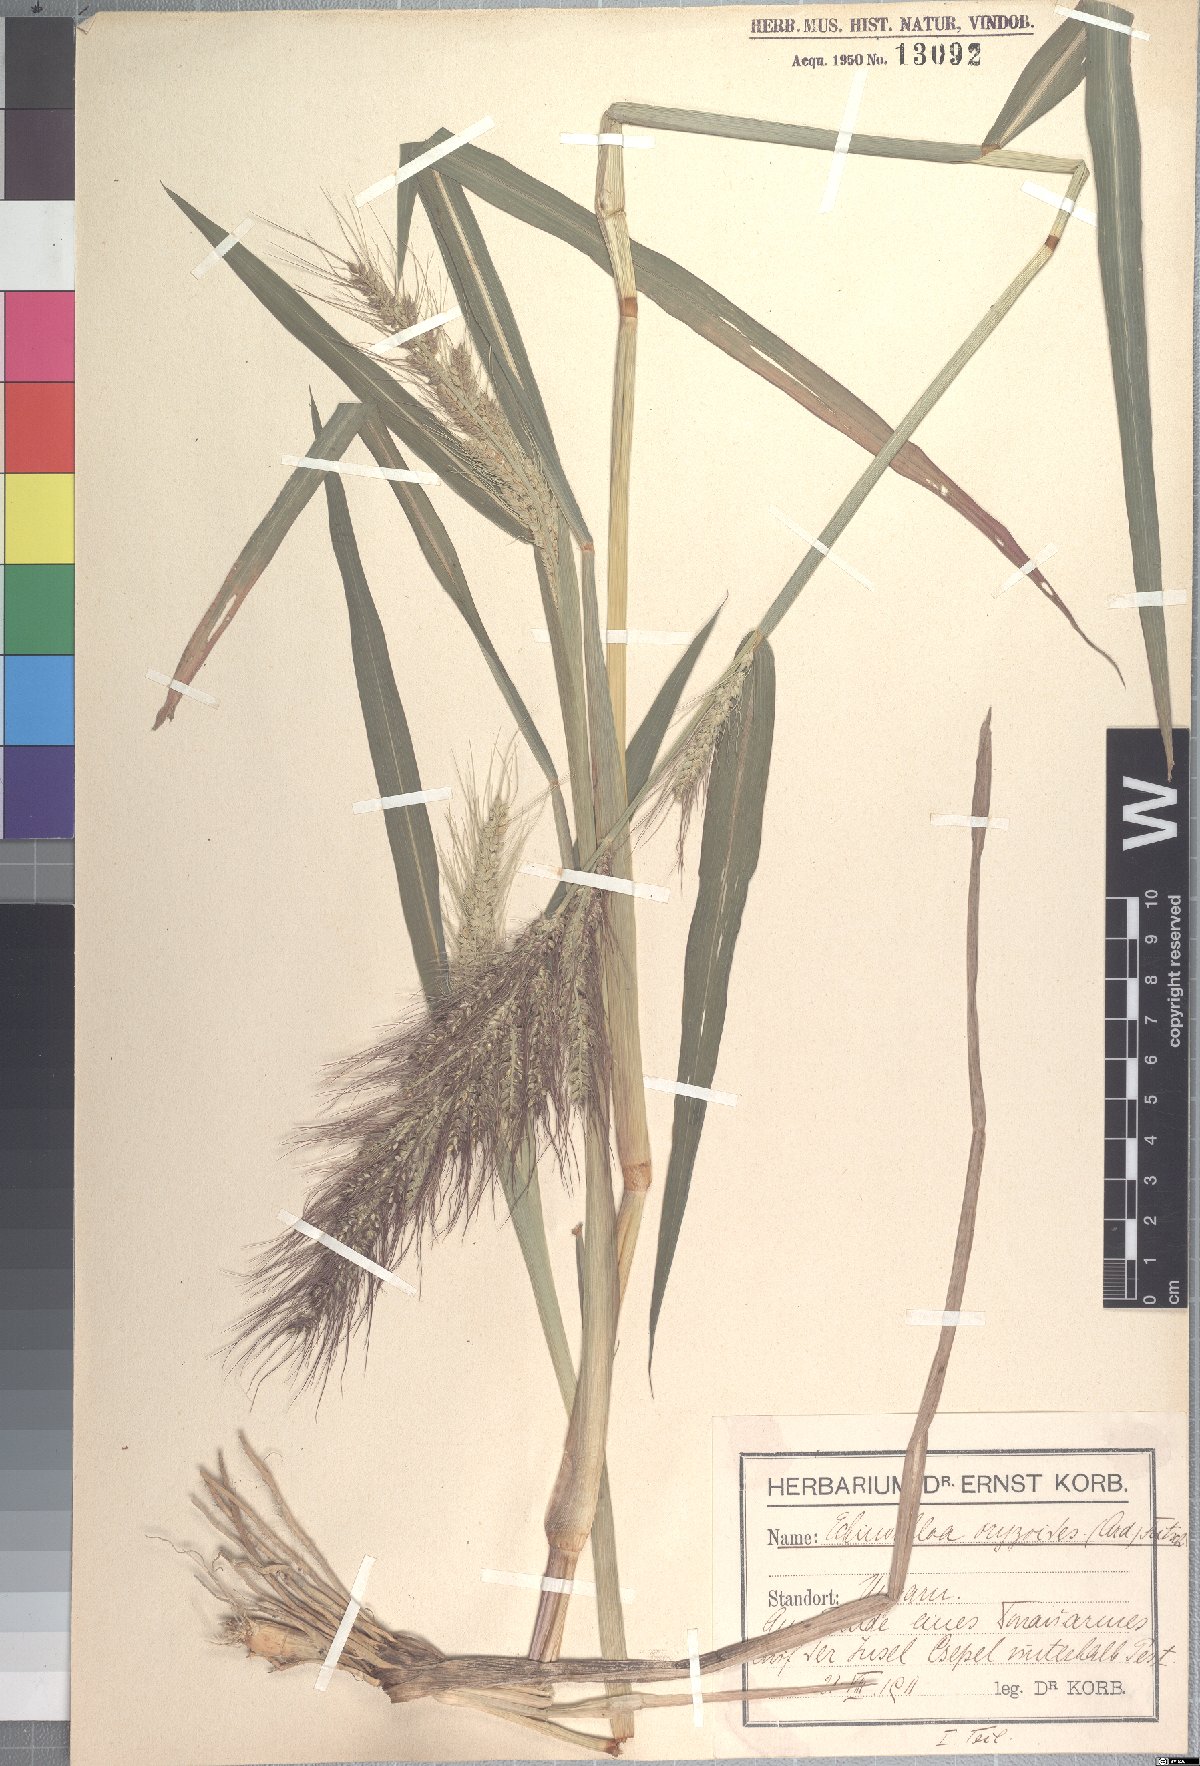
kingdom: Plantae
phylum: Tracheophyta
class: Liliopsida
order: Poales
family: Poaceae
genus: Echinochloa
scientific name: Echinochloa oryzoides
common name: Early water grass
